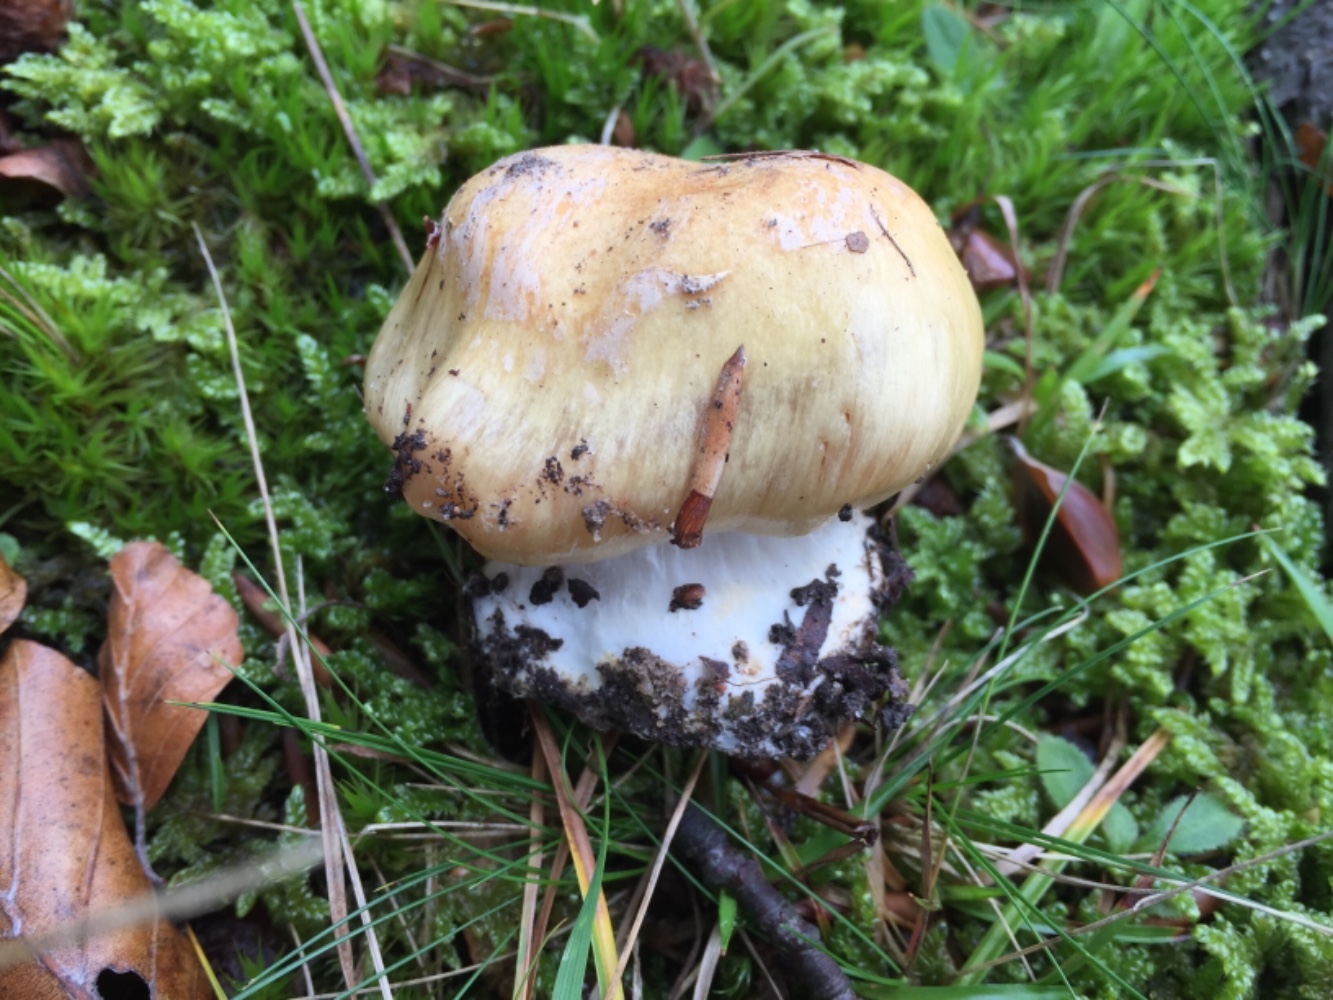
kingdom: Fungi
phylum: Basidiomycota
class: Agaricomycetes
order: Agaricales
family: Cortinariaceae
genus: Phlegmacium
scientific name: Phlegmacium xantho-ochraceum
